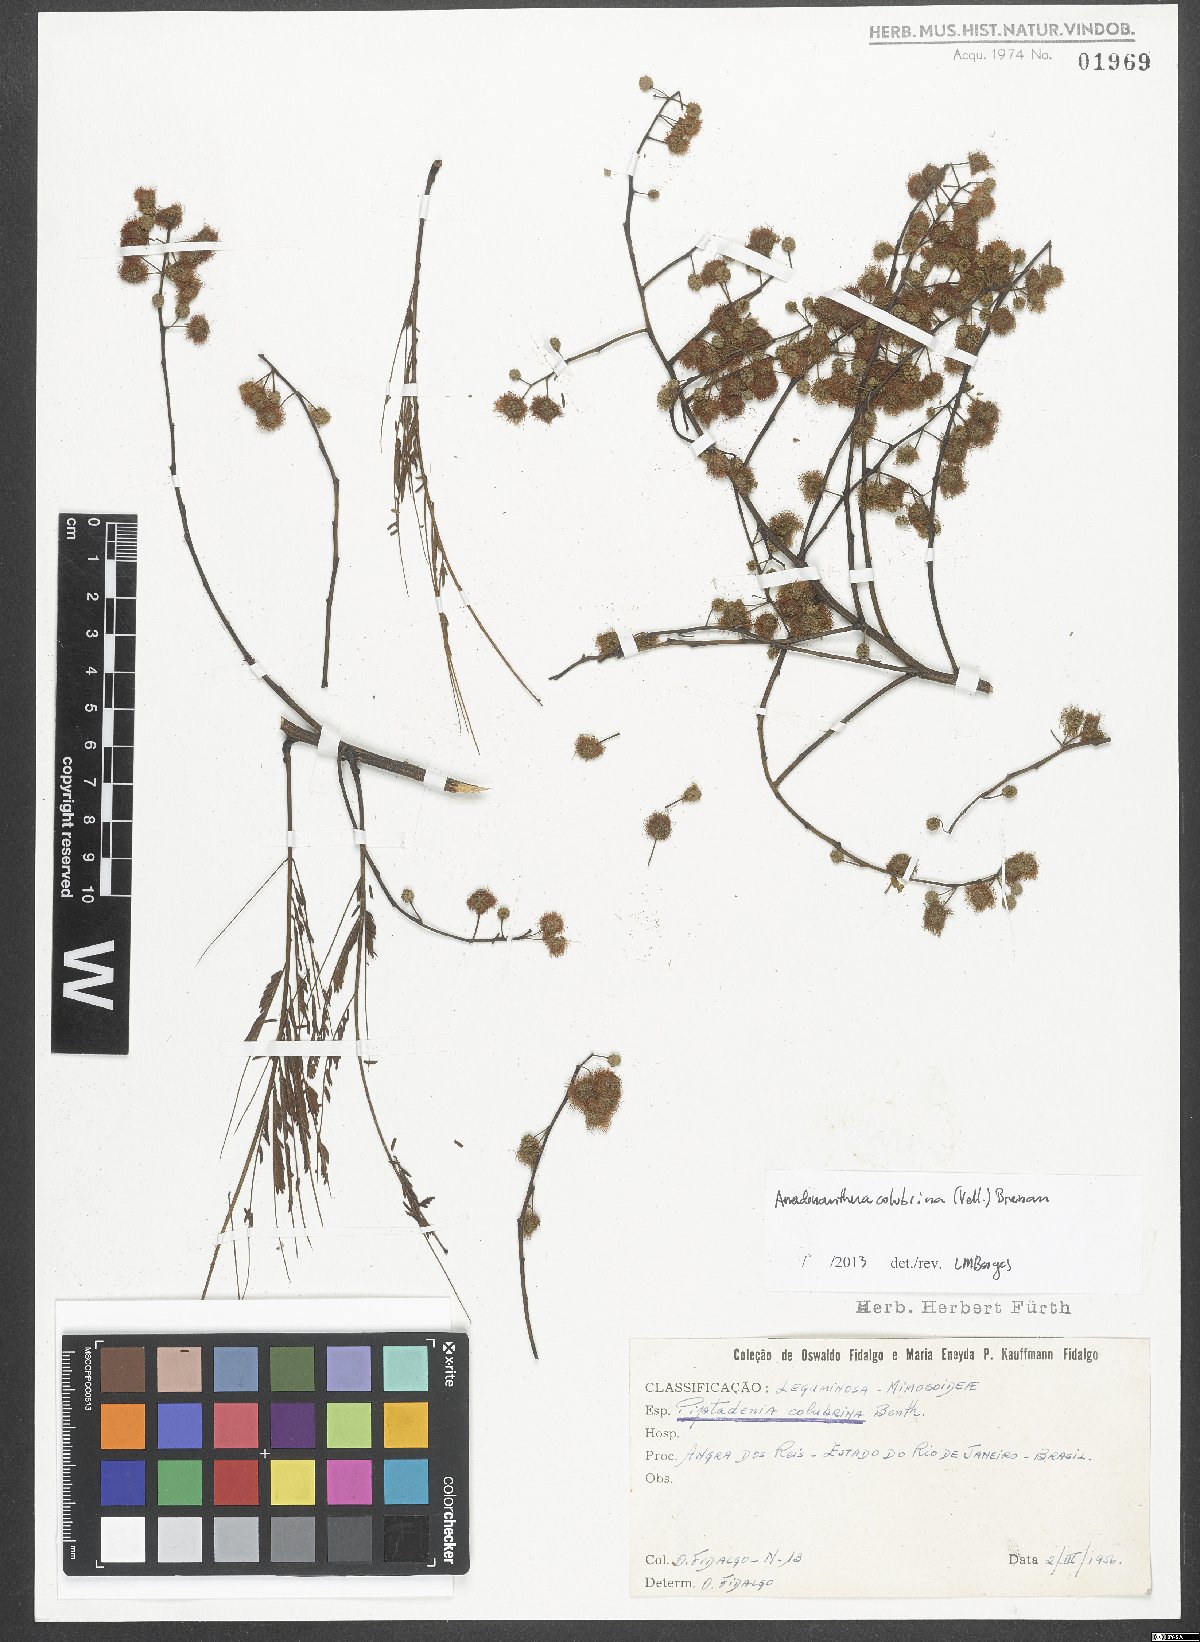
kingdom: Plantae
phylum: Tracheophyta
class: Magnoliopsida
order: Fabales
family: Fabaceae
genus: Anadenanthera
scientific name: Anadenanthera colubrina
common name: Curupay
